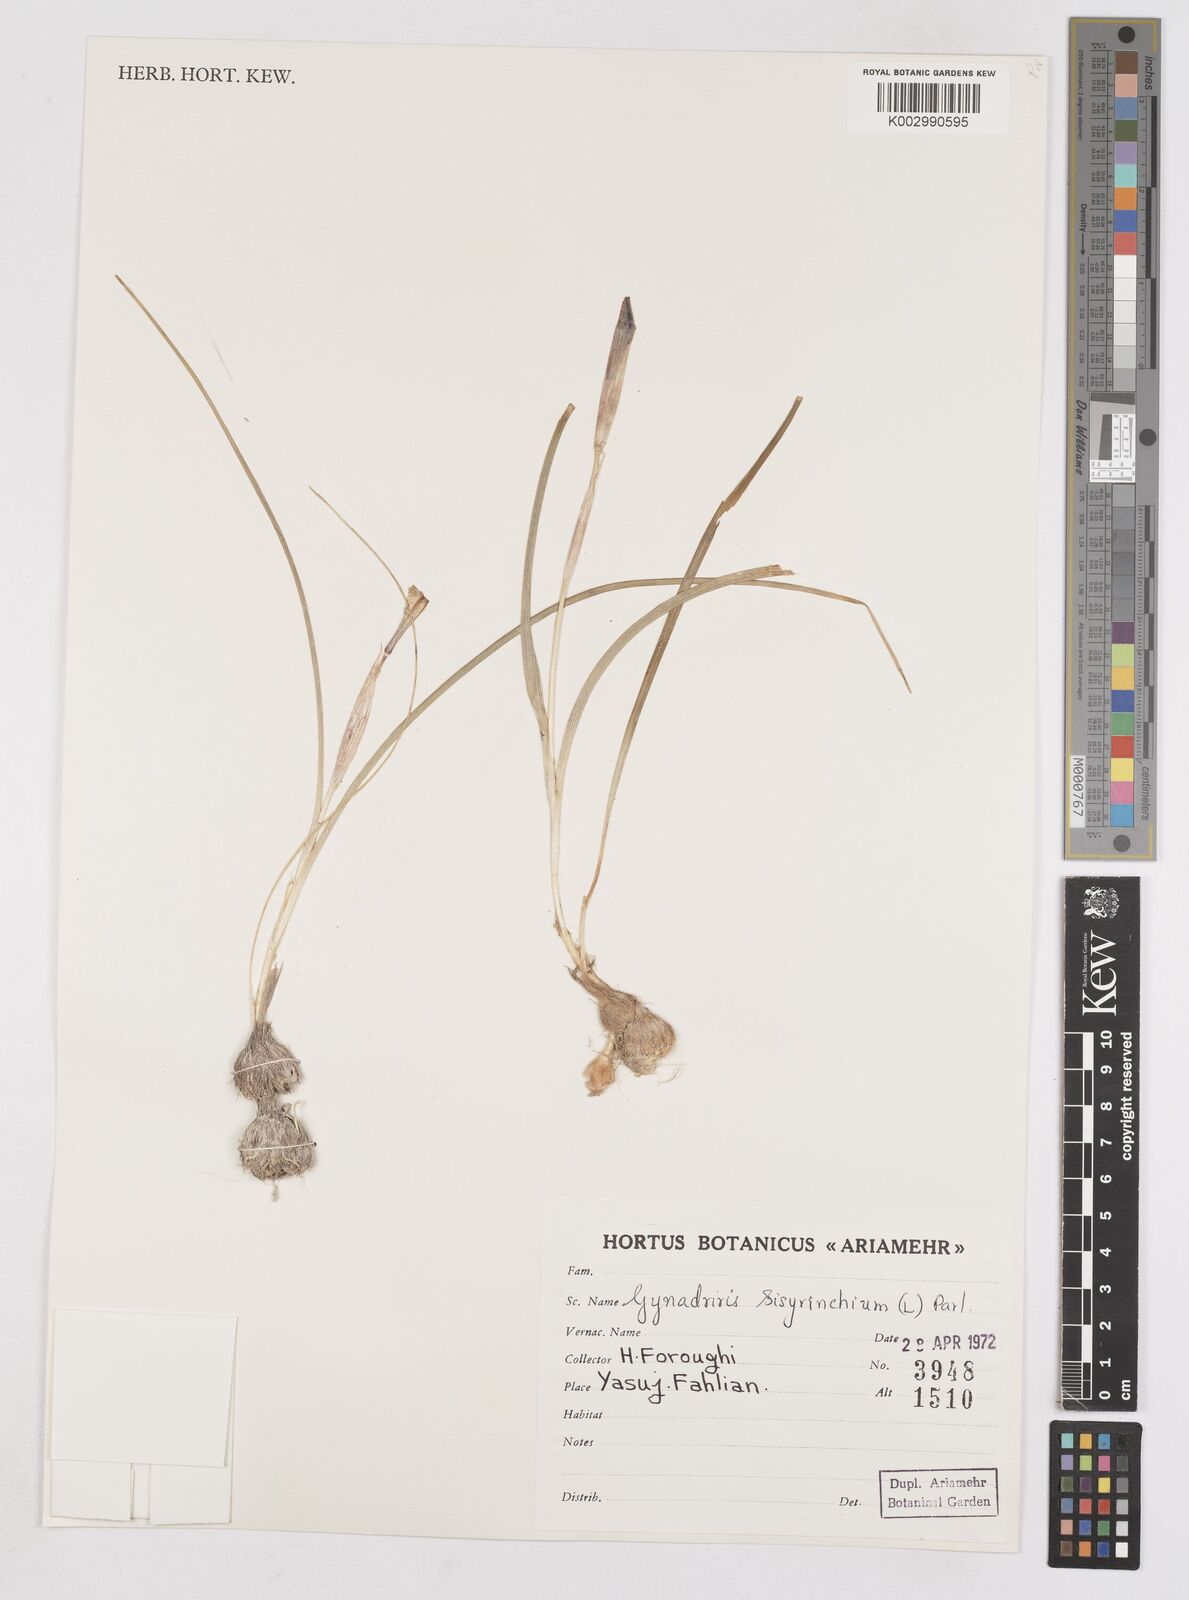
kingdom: Plantae
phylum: Tracheophyta
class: Liliopsida
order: Asparagales
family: Iridaceae
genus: Moraea
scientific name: Moraea sisyrinchium
